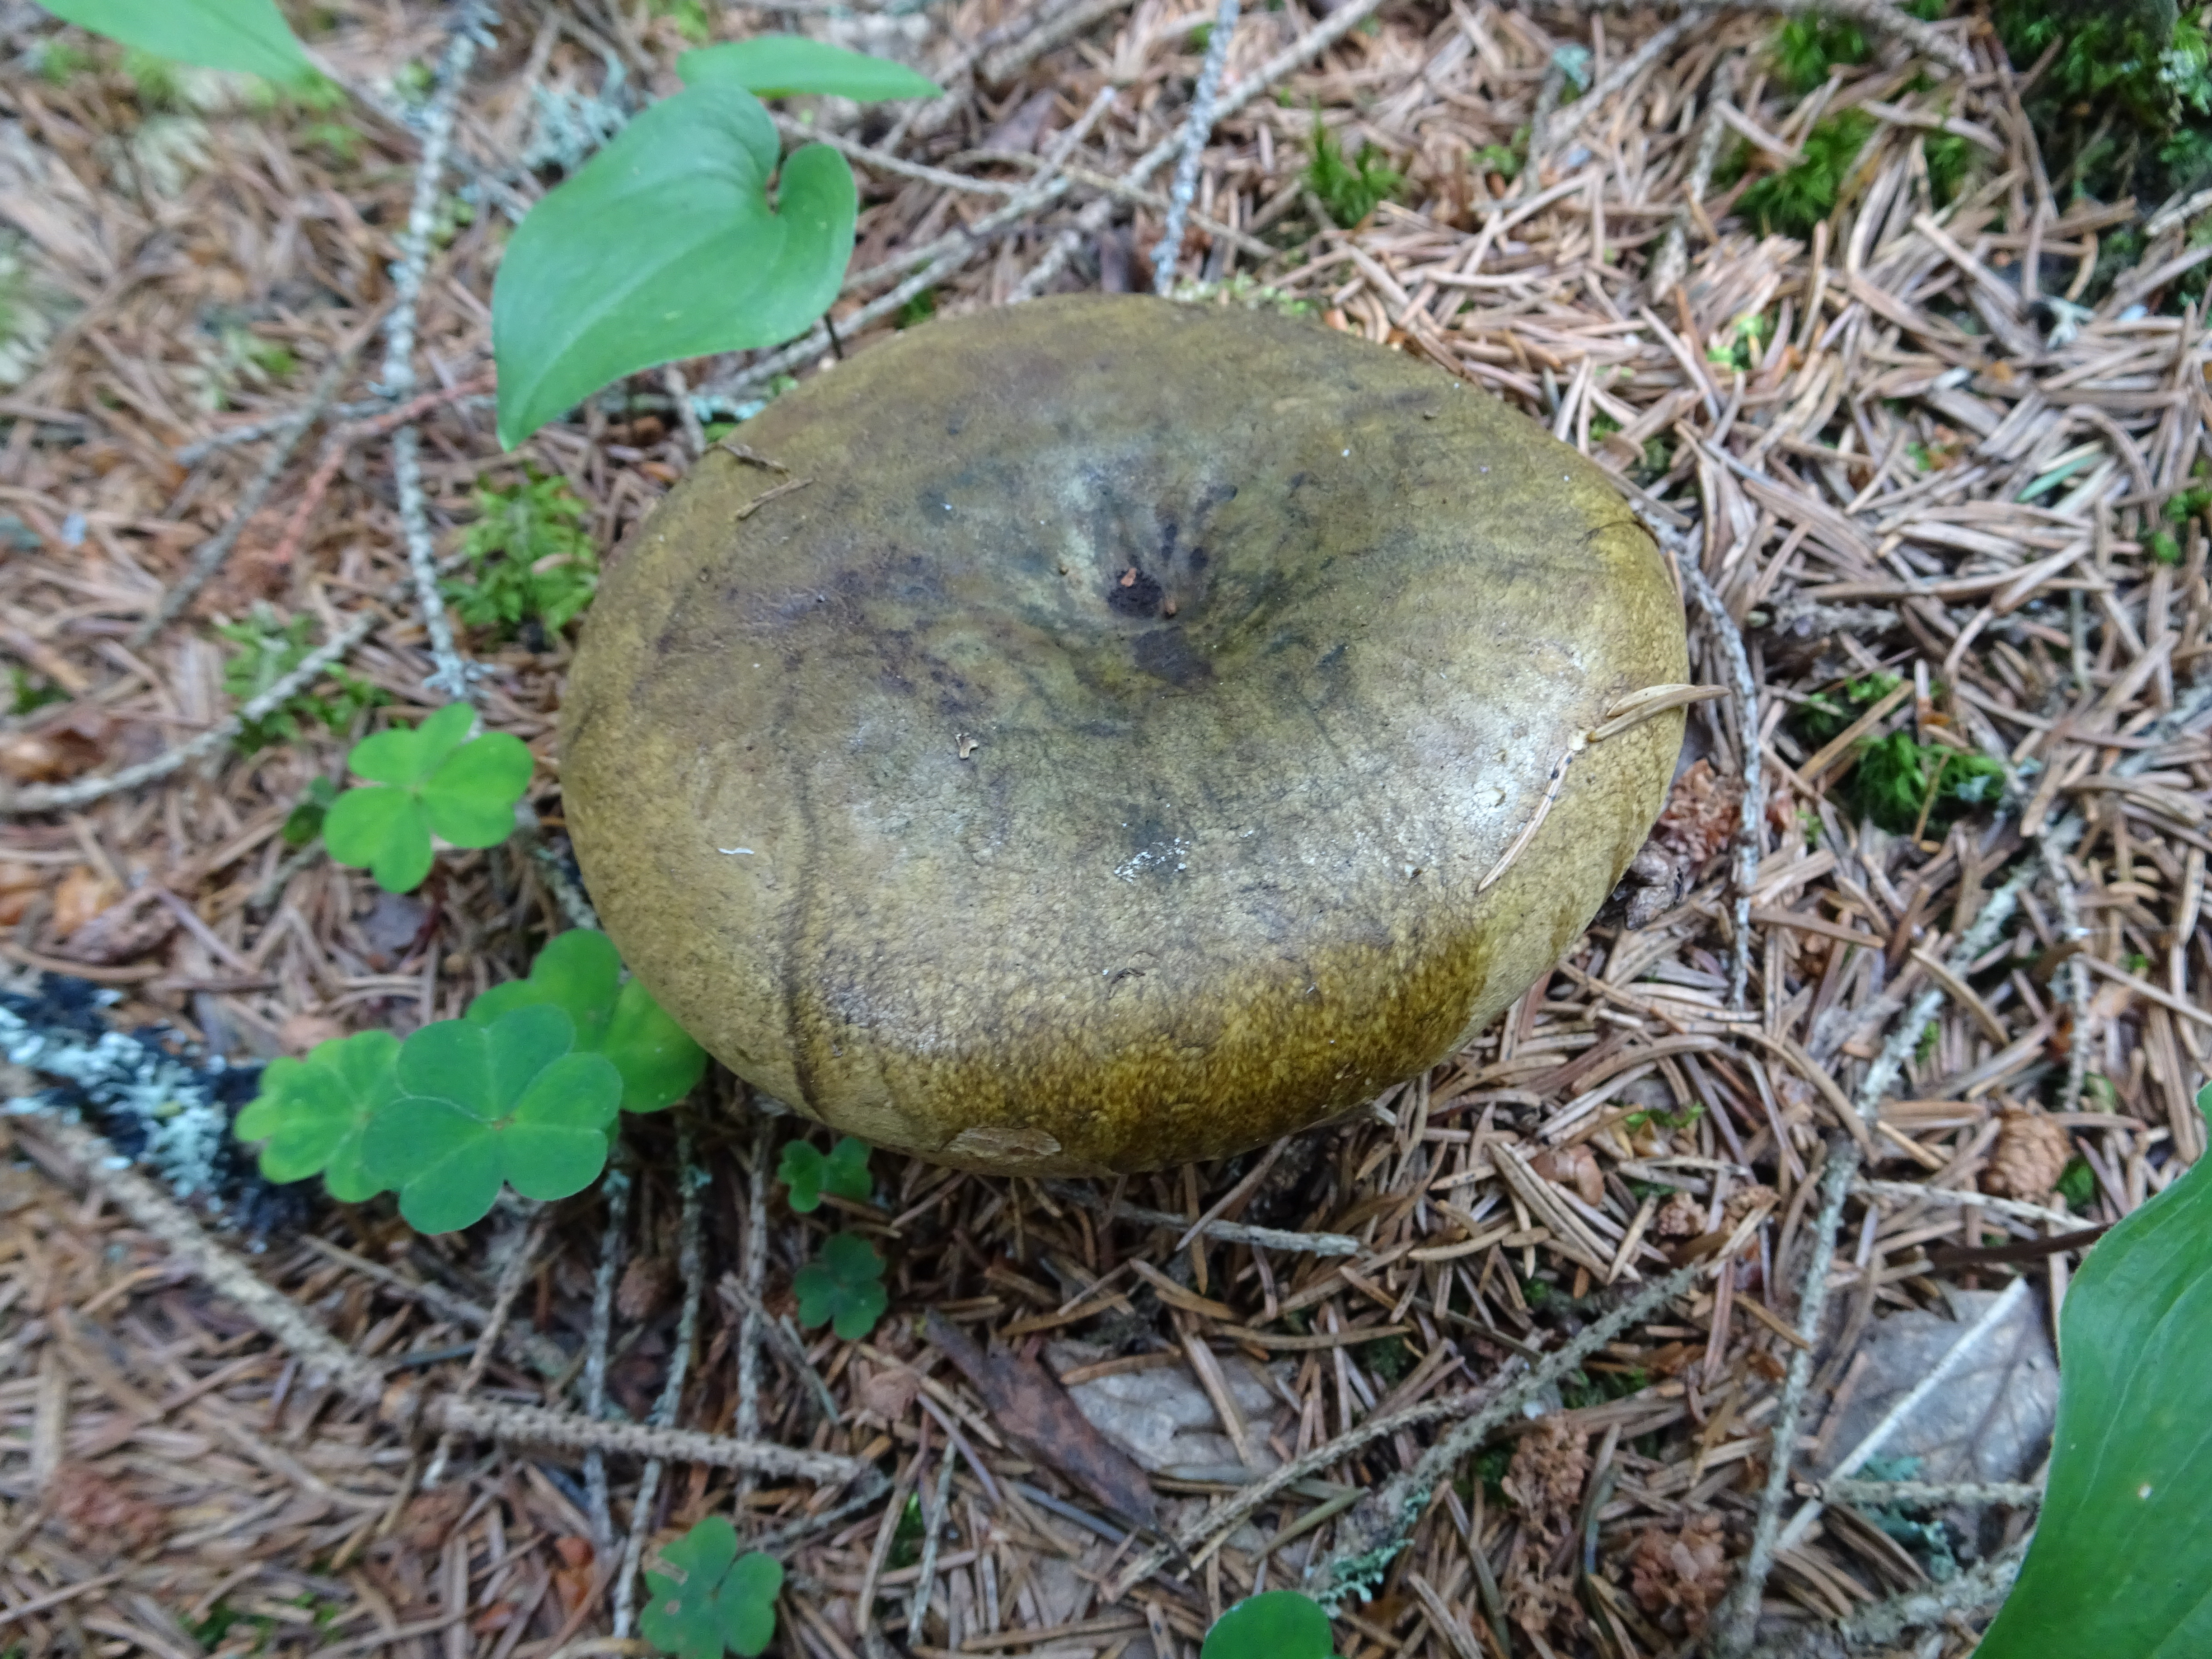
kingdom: Fungi
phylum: Basidiomycota
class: Agaricomycetes
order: Russulales
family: Russulaceae
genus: Lactarius
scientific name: Lactarius turpis
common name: Ugly milk-cap
